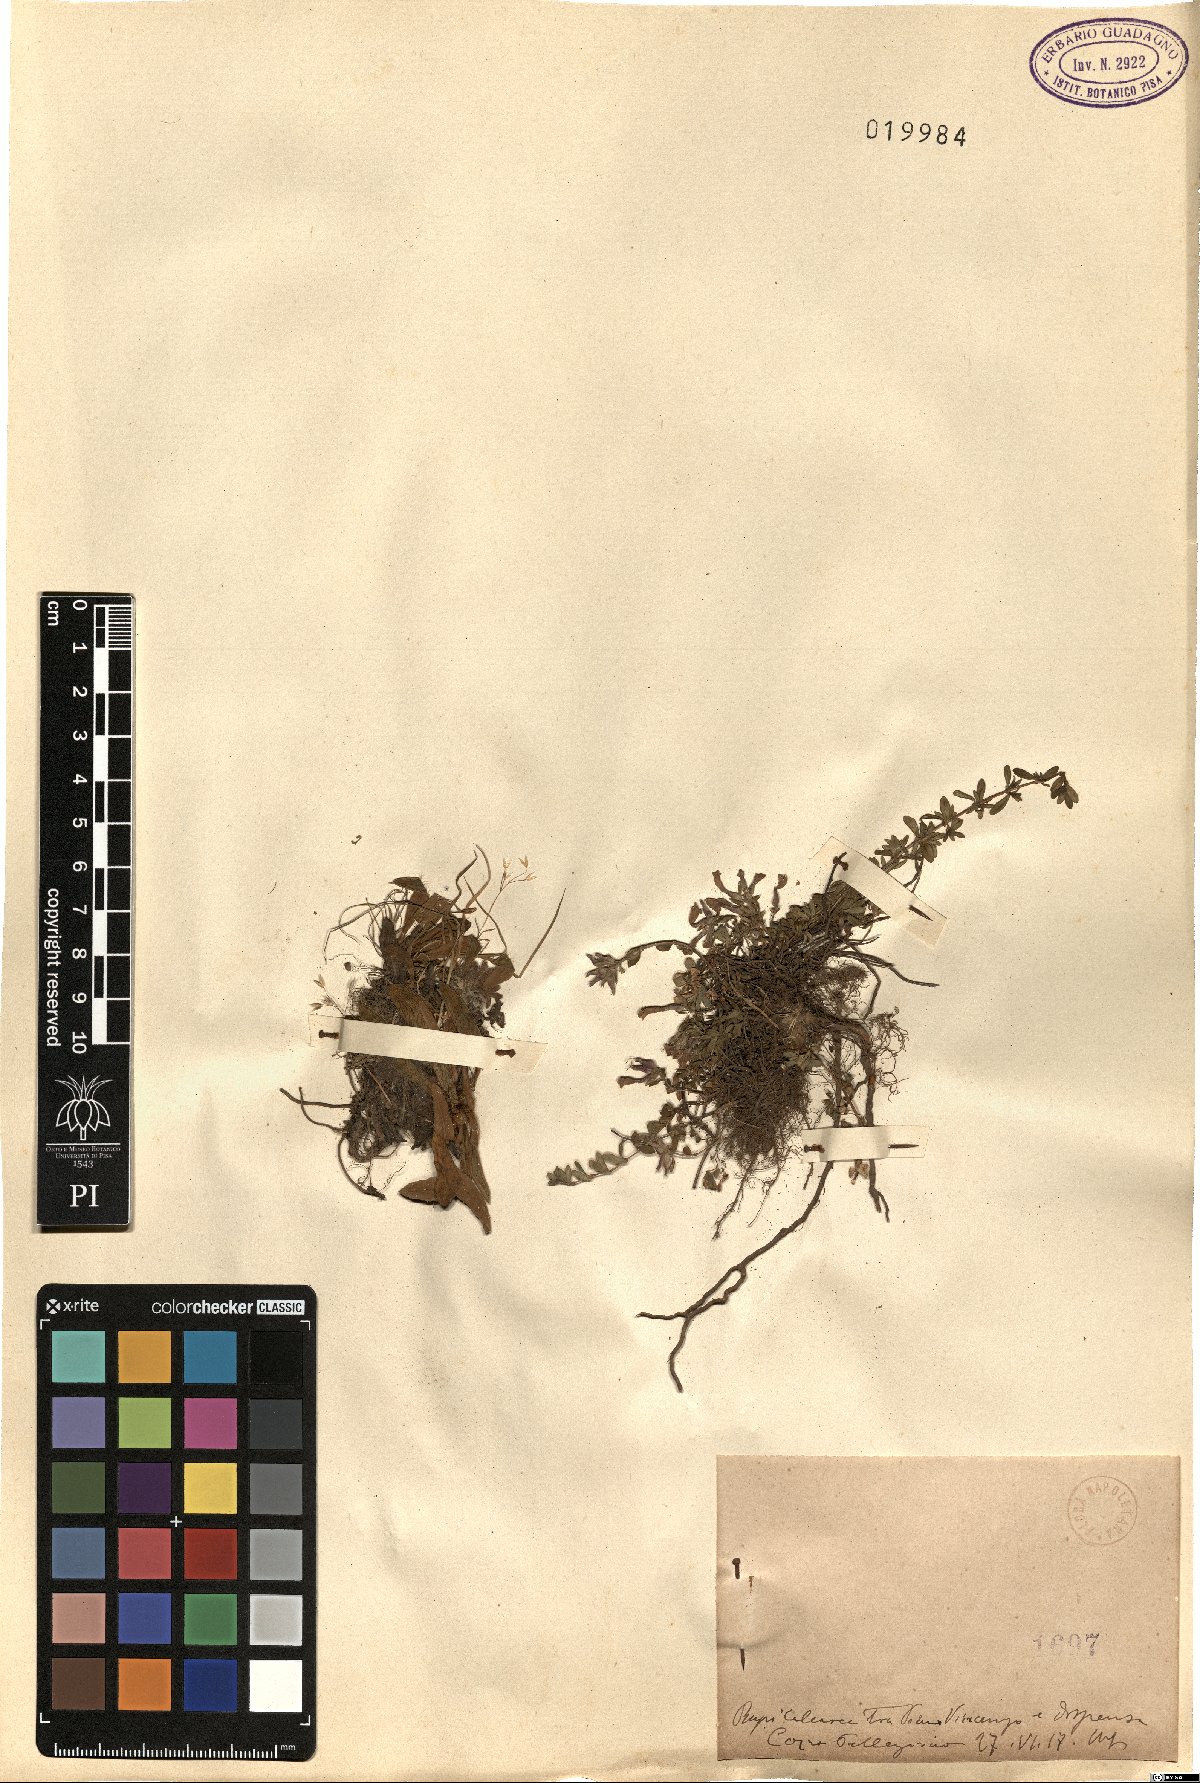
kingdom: Plantae
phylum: Tracheophyta
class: Magnoliopsida
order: Asterales
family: Asteraceae
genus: Hieracium
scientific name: Hieracium
